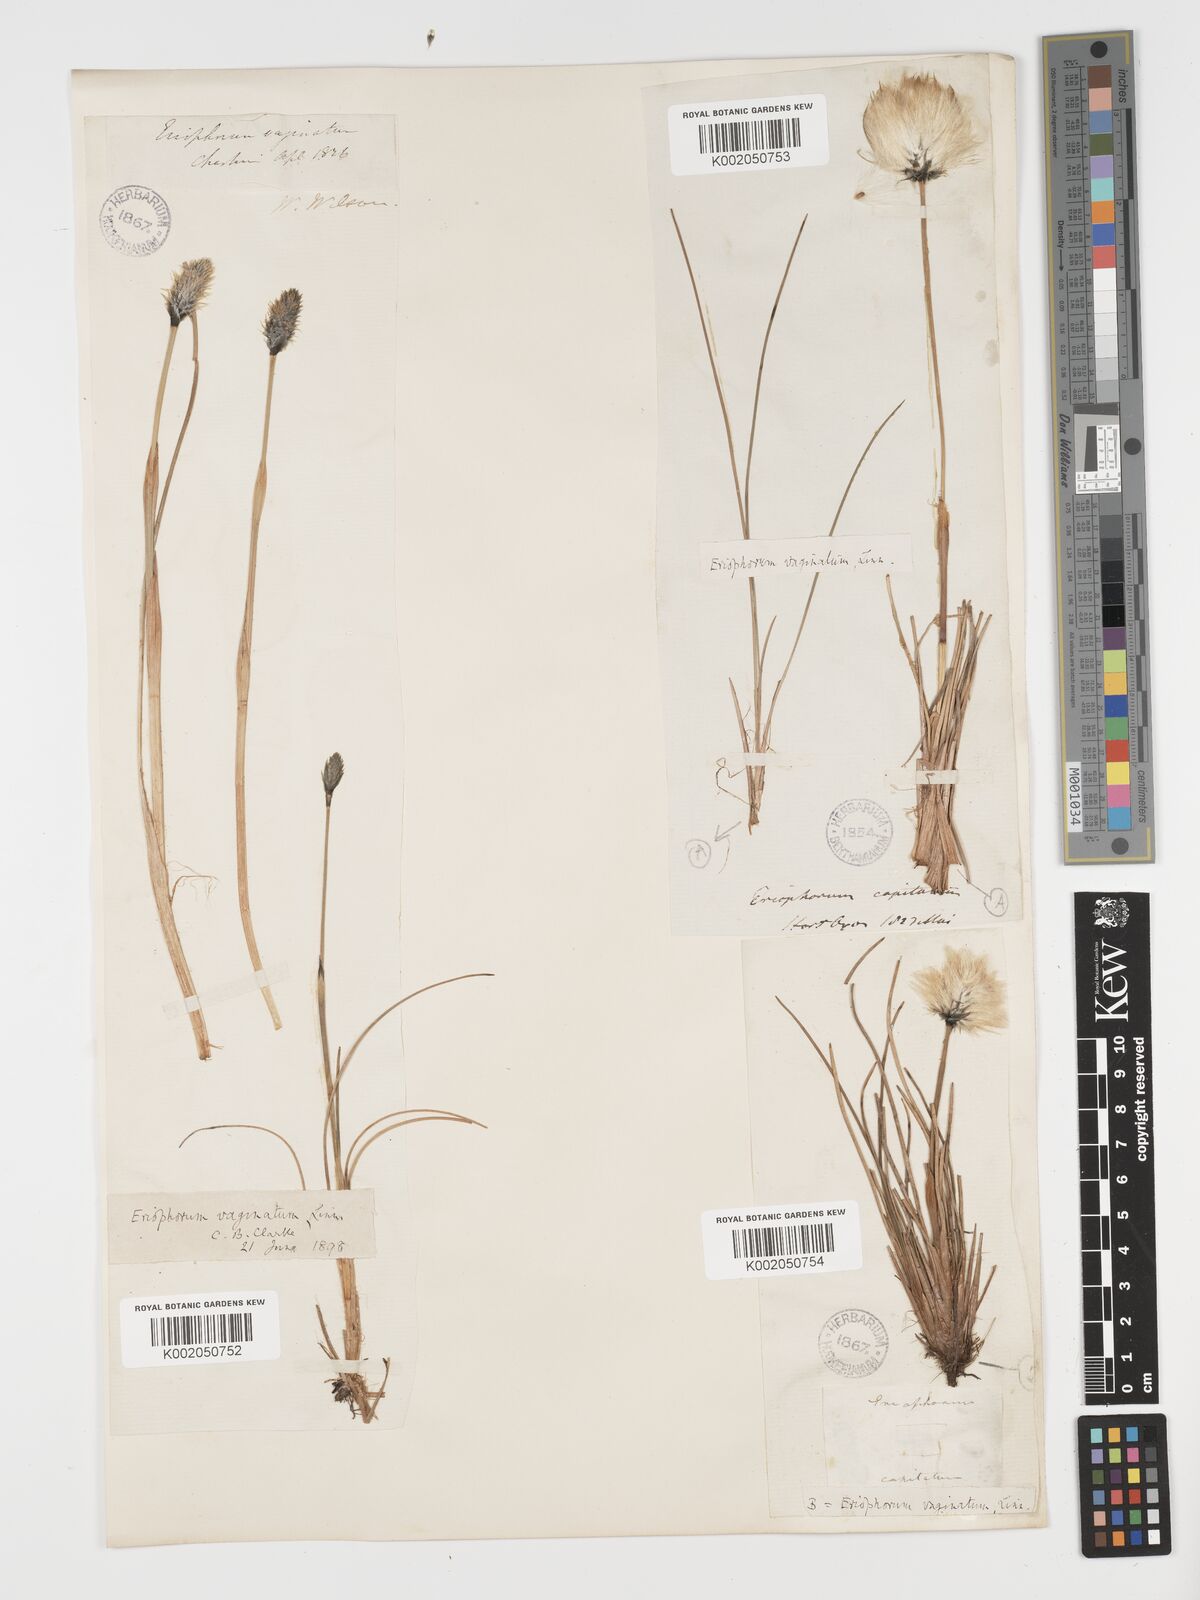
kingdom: Plantae
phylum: Tracheophyta
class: Liliopsida
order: Poales
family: Cyperaceae
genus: Eriophorum
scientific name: Eriophorum vaginatum
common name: Hare's-tail cottongrass
